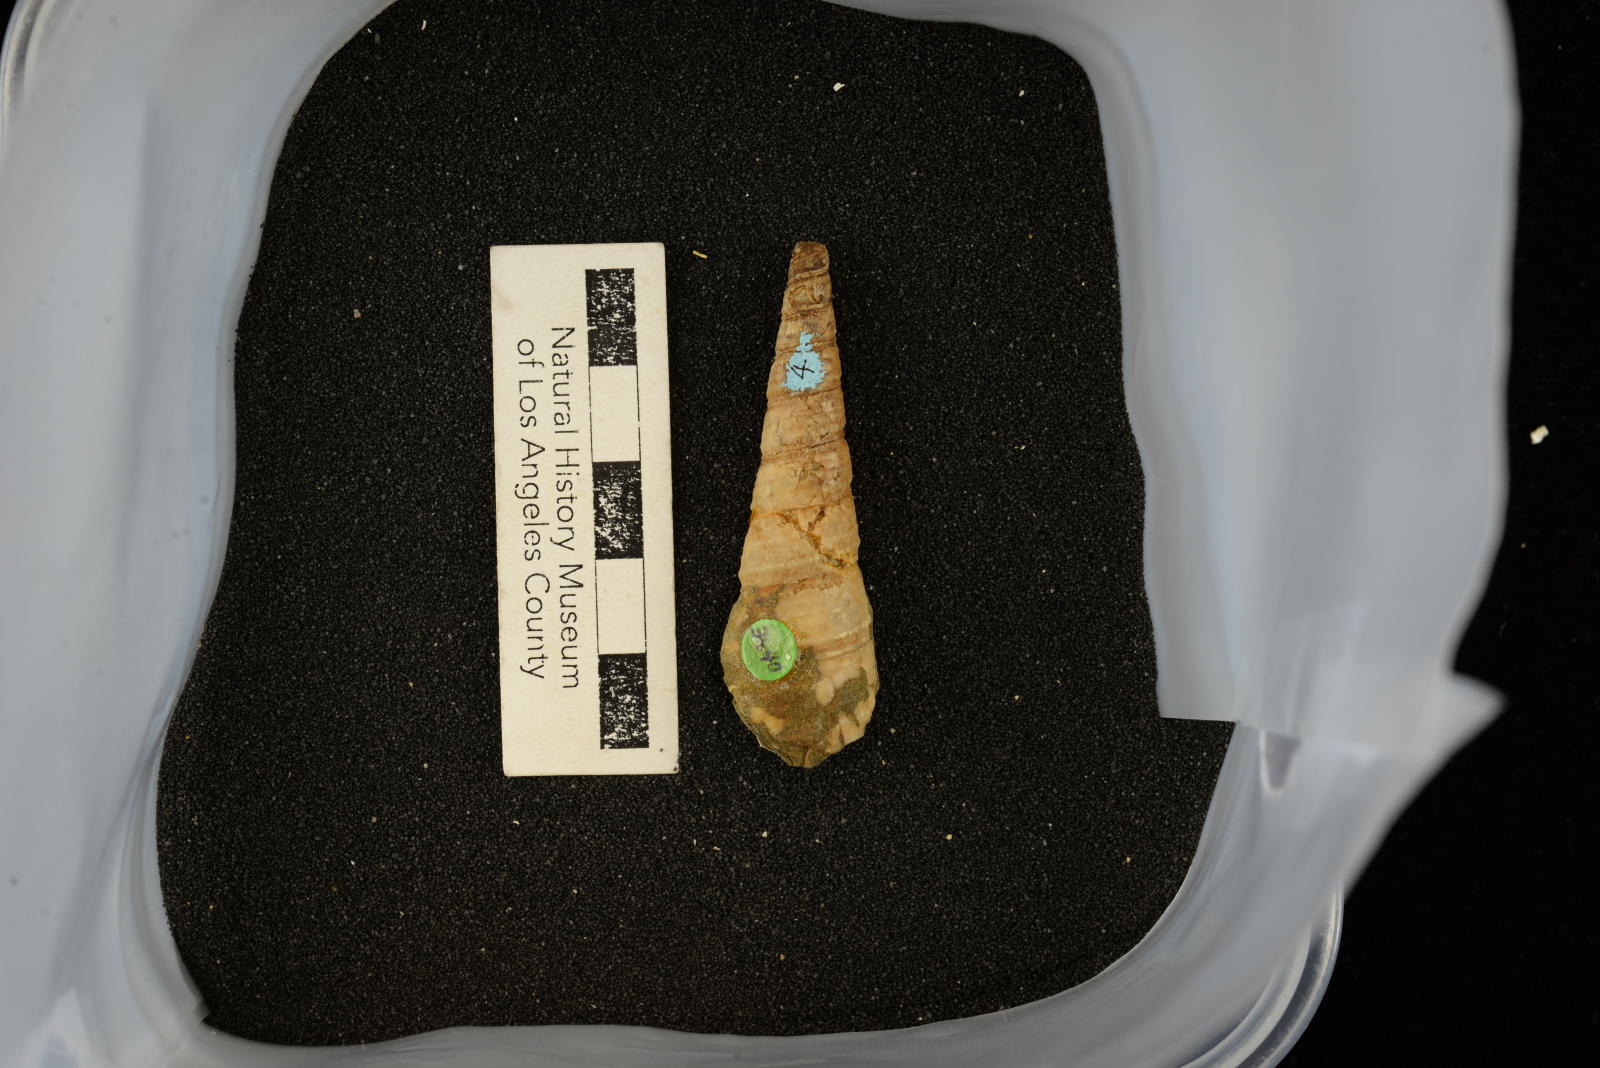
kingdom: Animalia
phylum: Mollusca
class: Gastropoda
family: Turritellidae
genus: Turritella
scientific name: Turritella chicoensis
